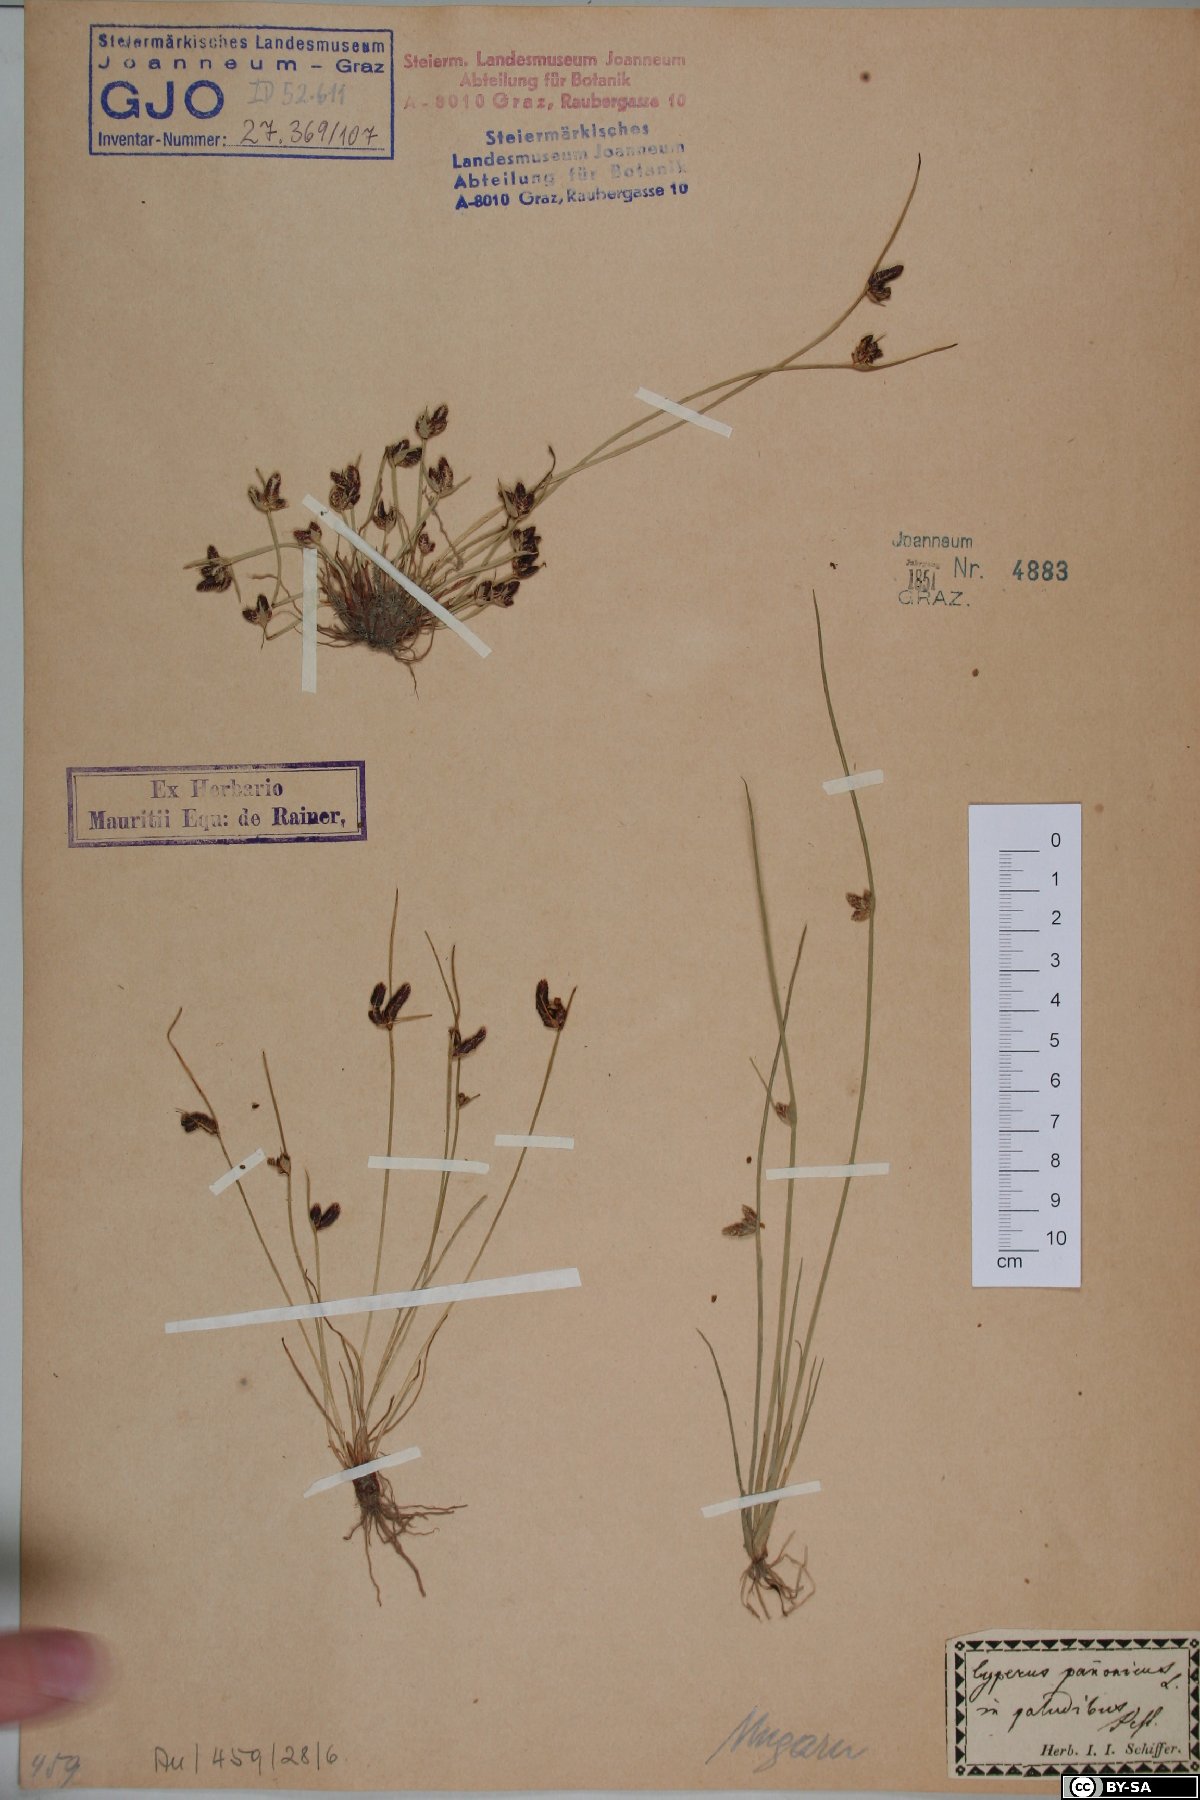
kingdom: Plantae
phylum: Tracheophyta
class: Liliopsida
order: Poales
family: Cyperaceae
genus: Cyperus
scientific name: Cyperus pannonicus
